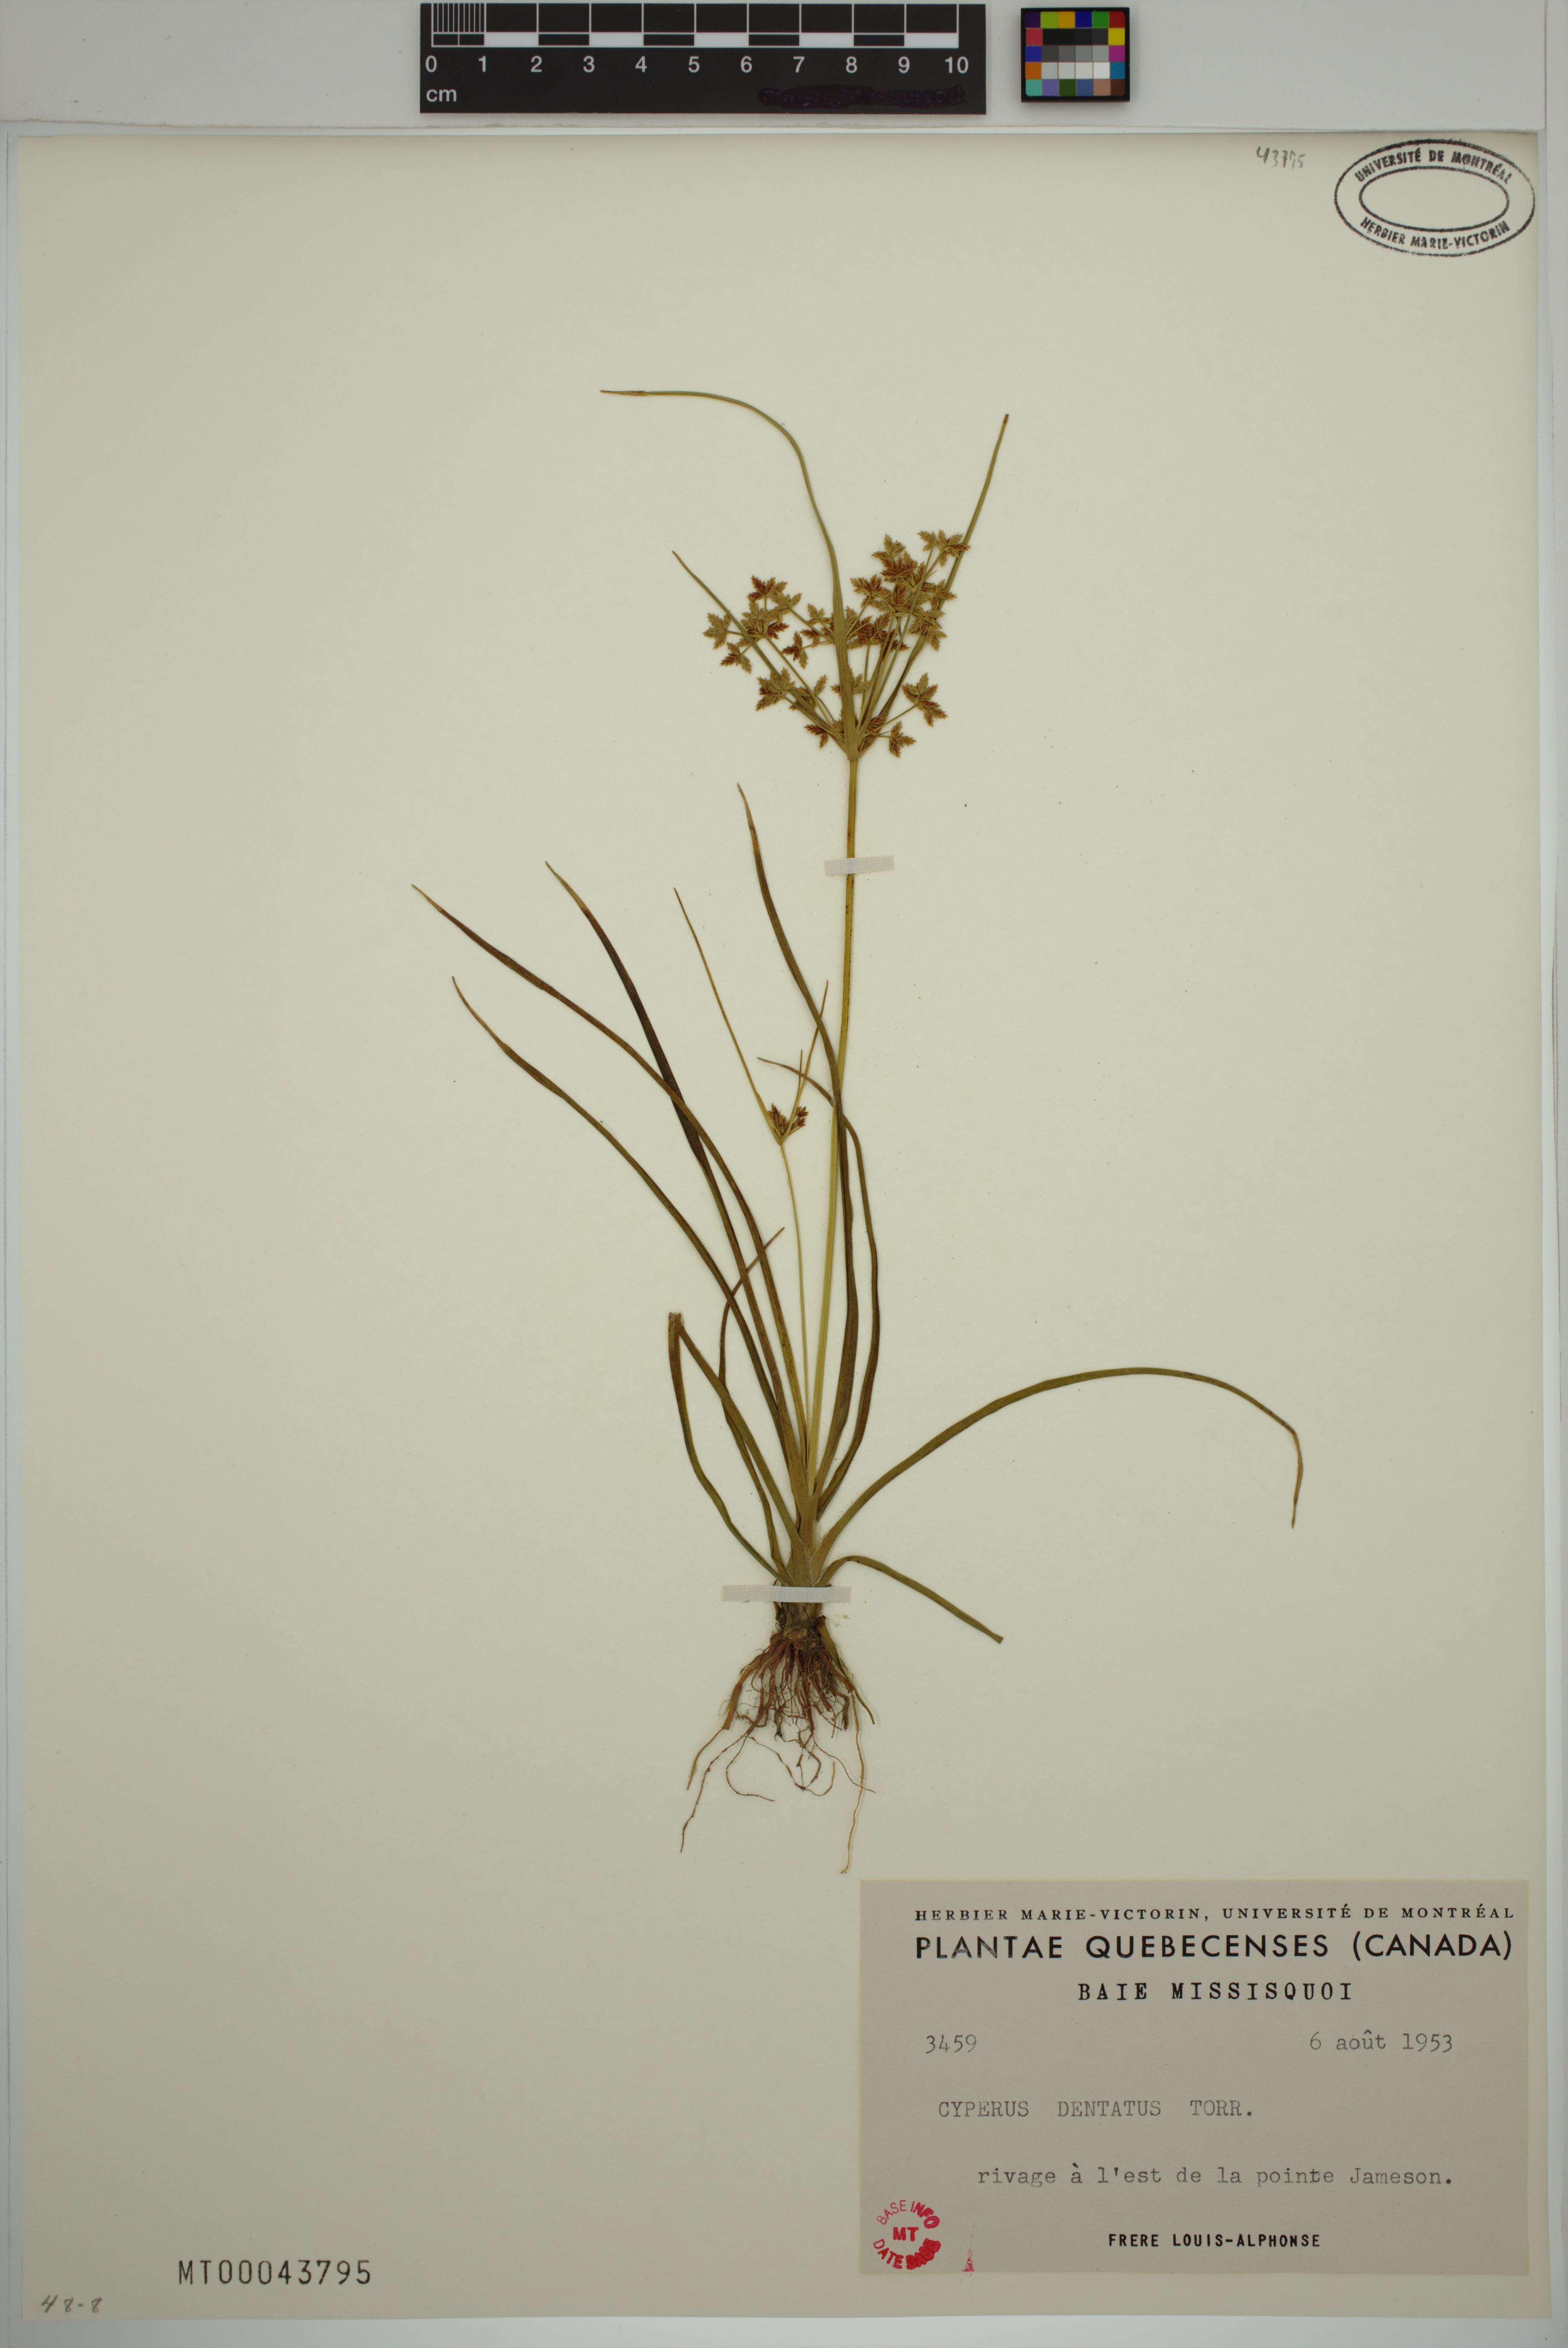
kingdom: Plantae
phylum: Tracheophyta
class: Liliopsida
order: Poales
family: Cyperaceae
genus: Cyperus
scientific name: Cyperus dentatus
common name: Dentate umbrella sedge
